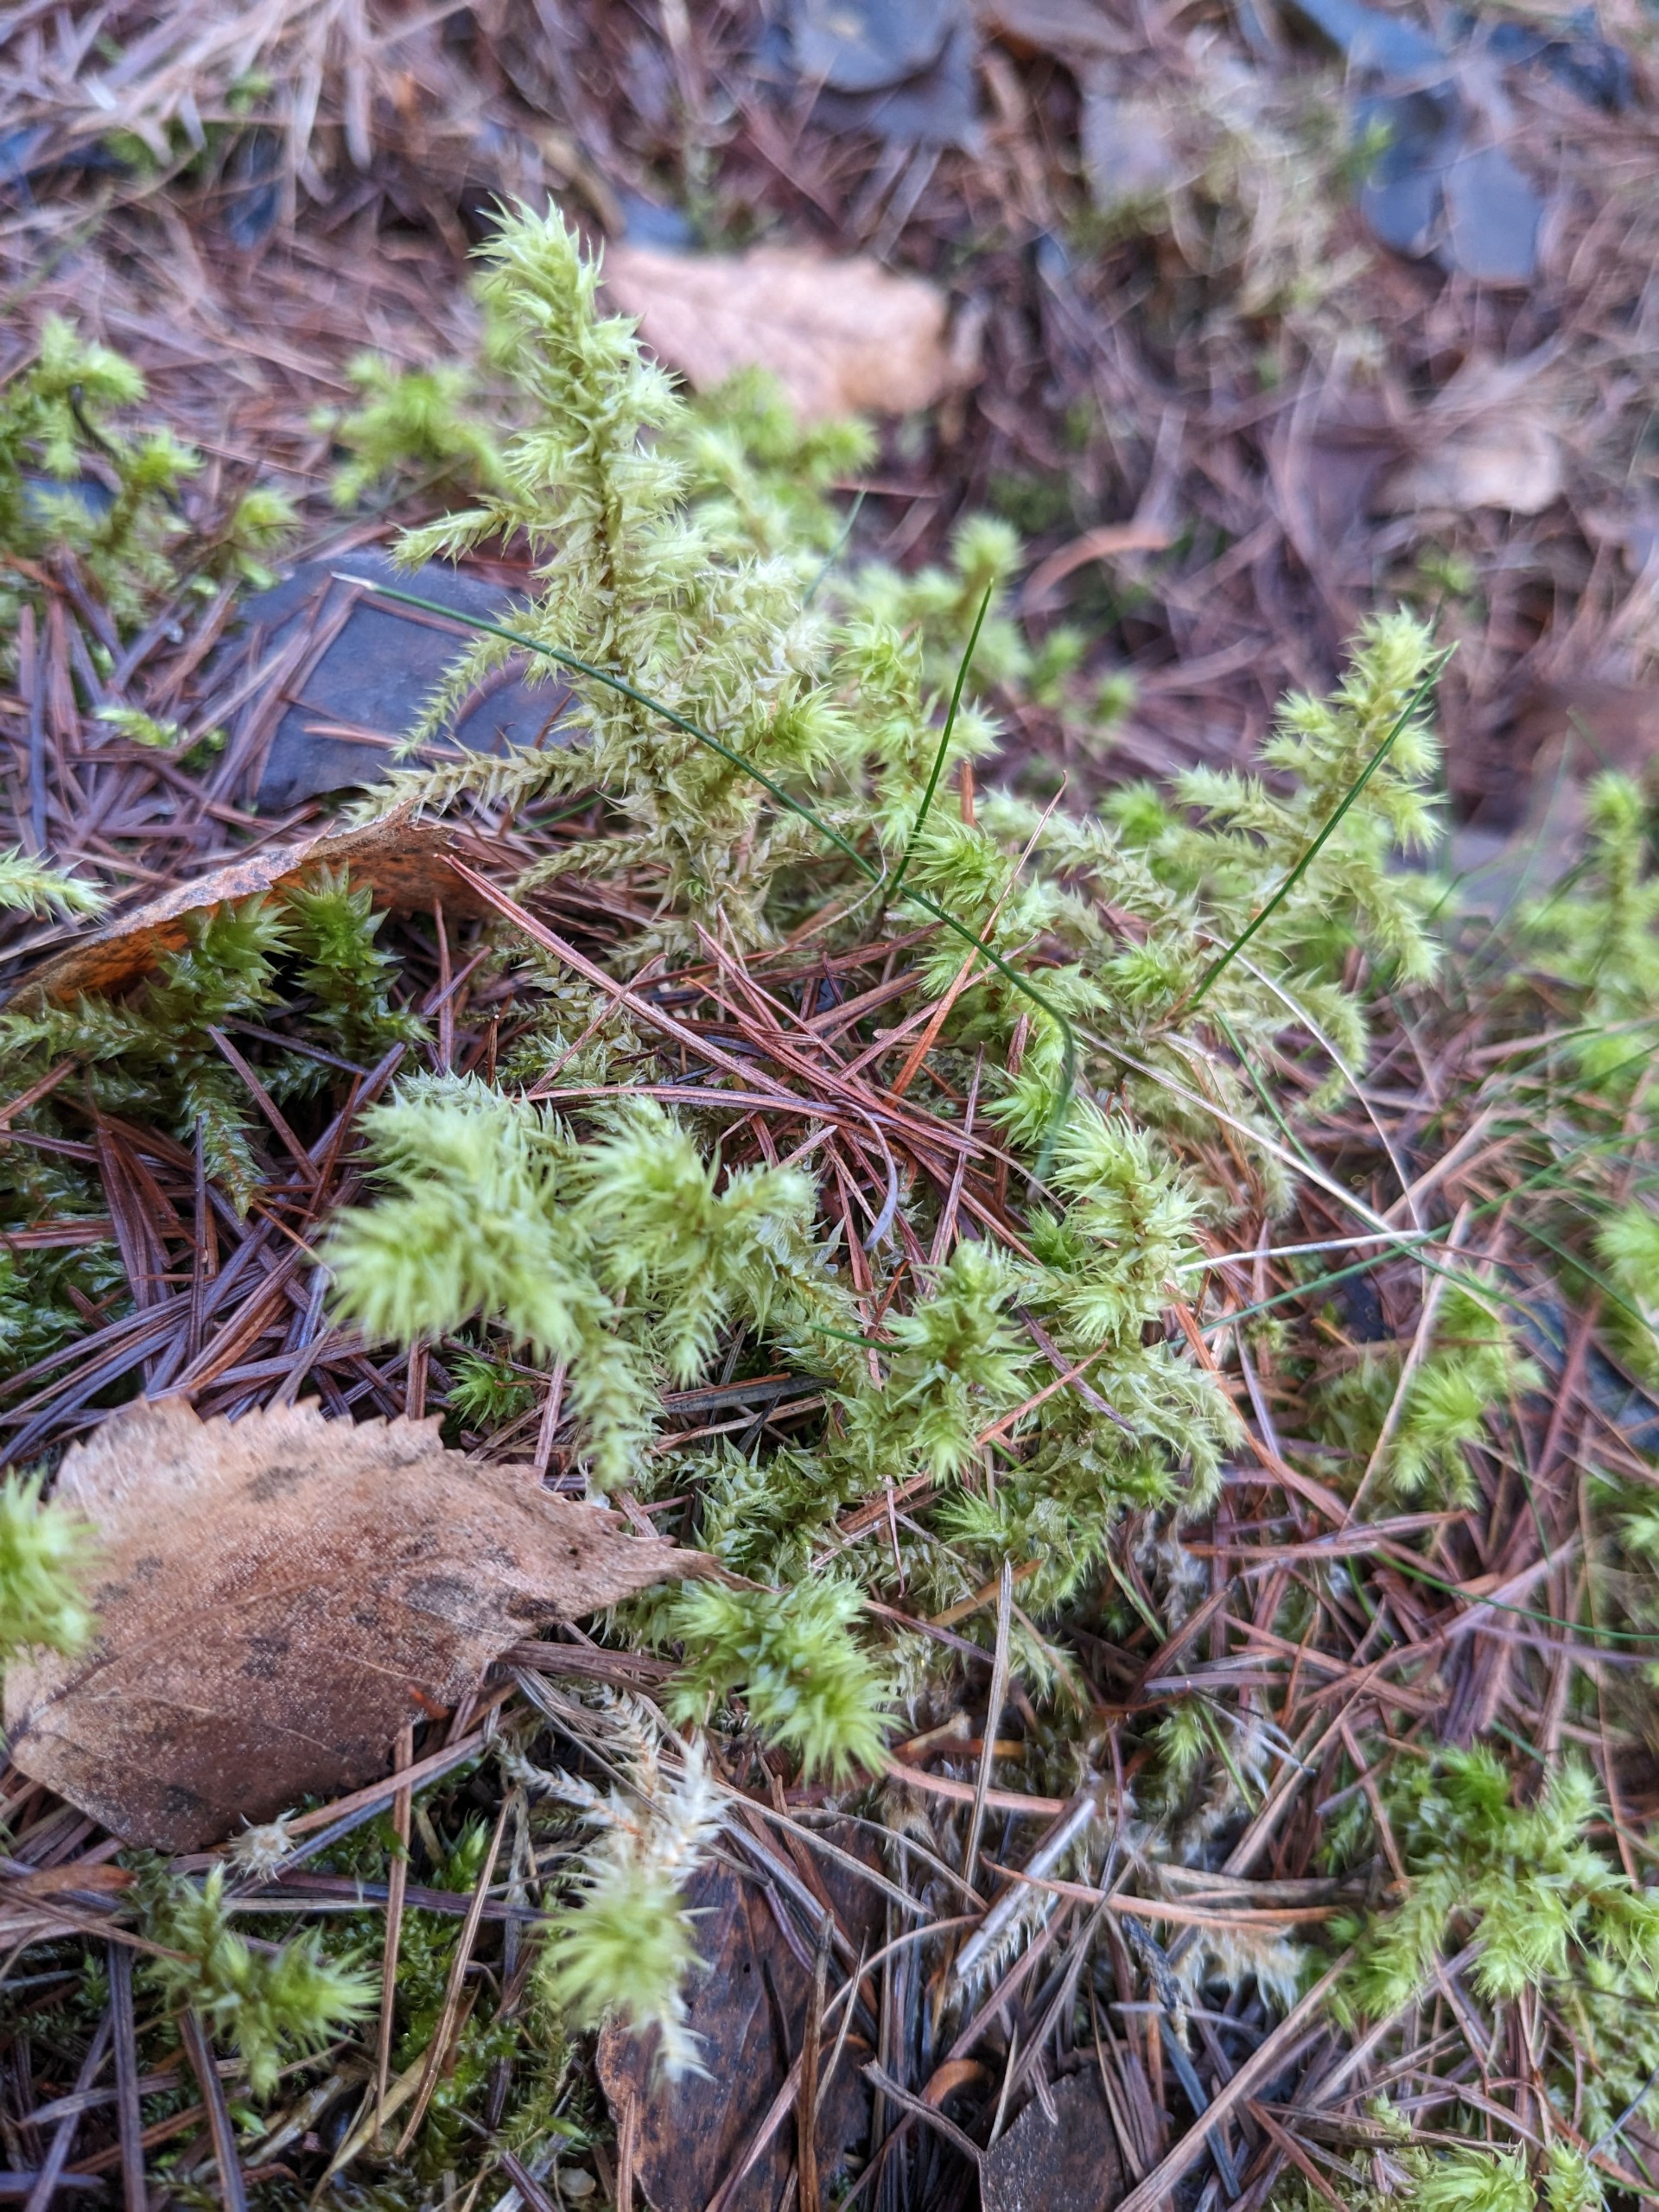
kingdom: Plantae
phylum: Bryophyta
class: Bryopsida
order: Hypnales
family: Hylocomiaceae
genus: Hylocomiadelphus
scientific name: Hylocomiadelphus triquetrus
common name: Stor kransemos
